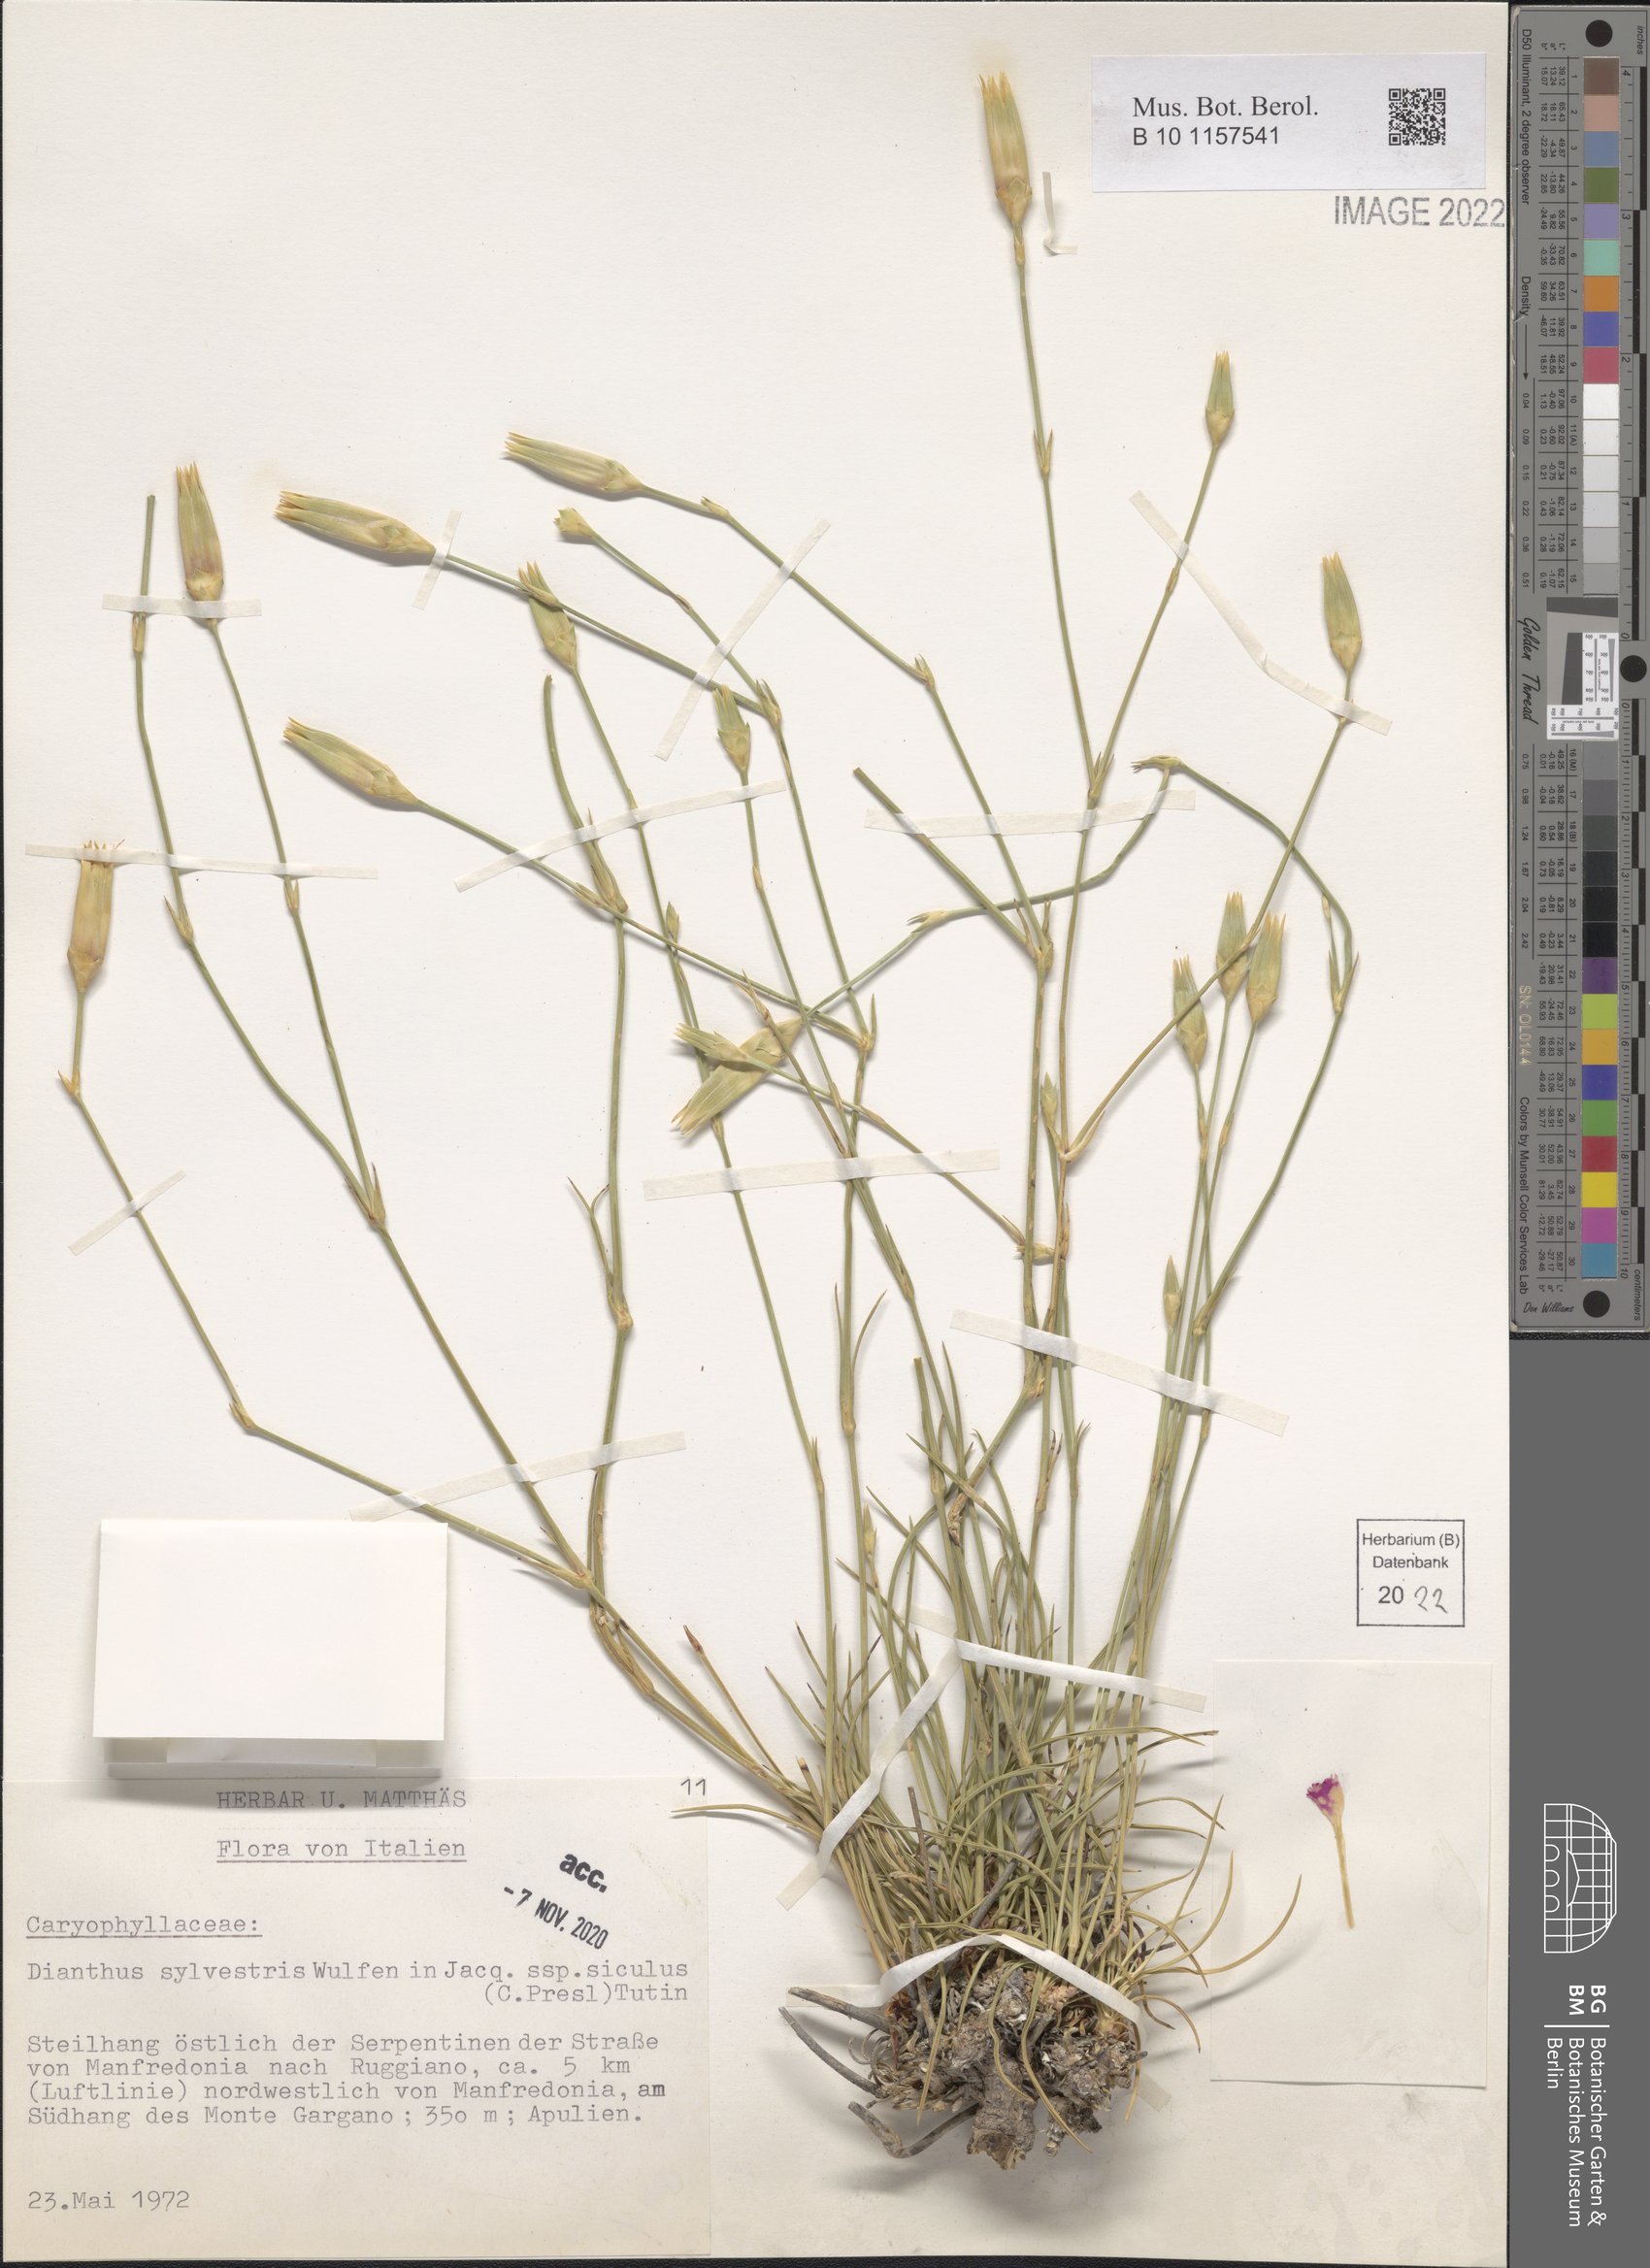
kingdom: Plantae
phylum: Tracheophyta
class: Magnoliopsida
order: Caryophyllales
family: Caryophyllaceae
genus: Dianthus
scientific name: Dianthus siculus
